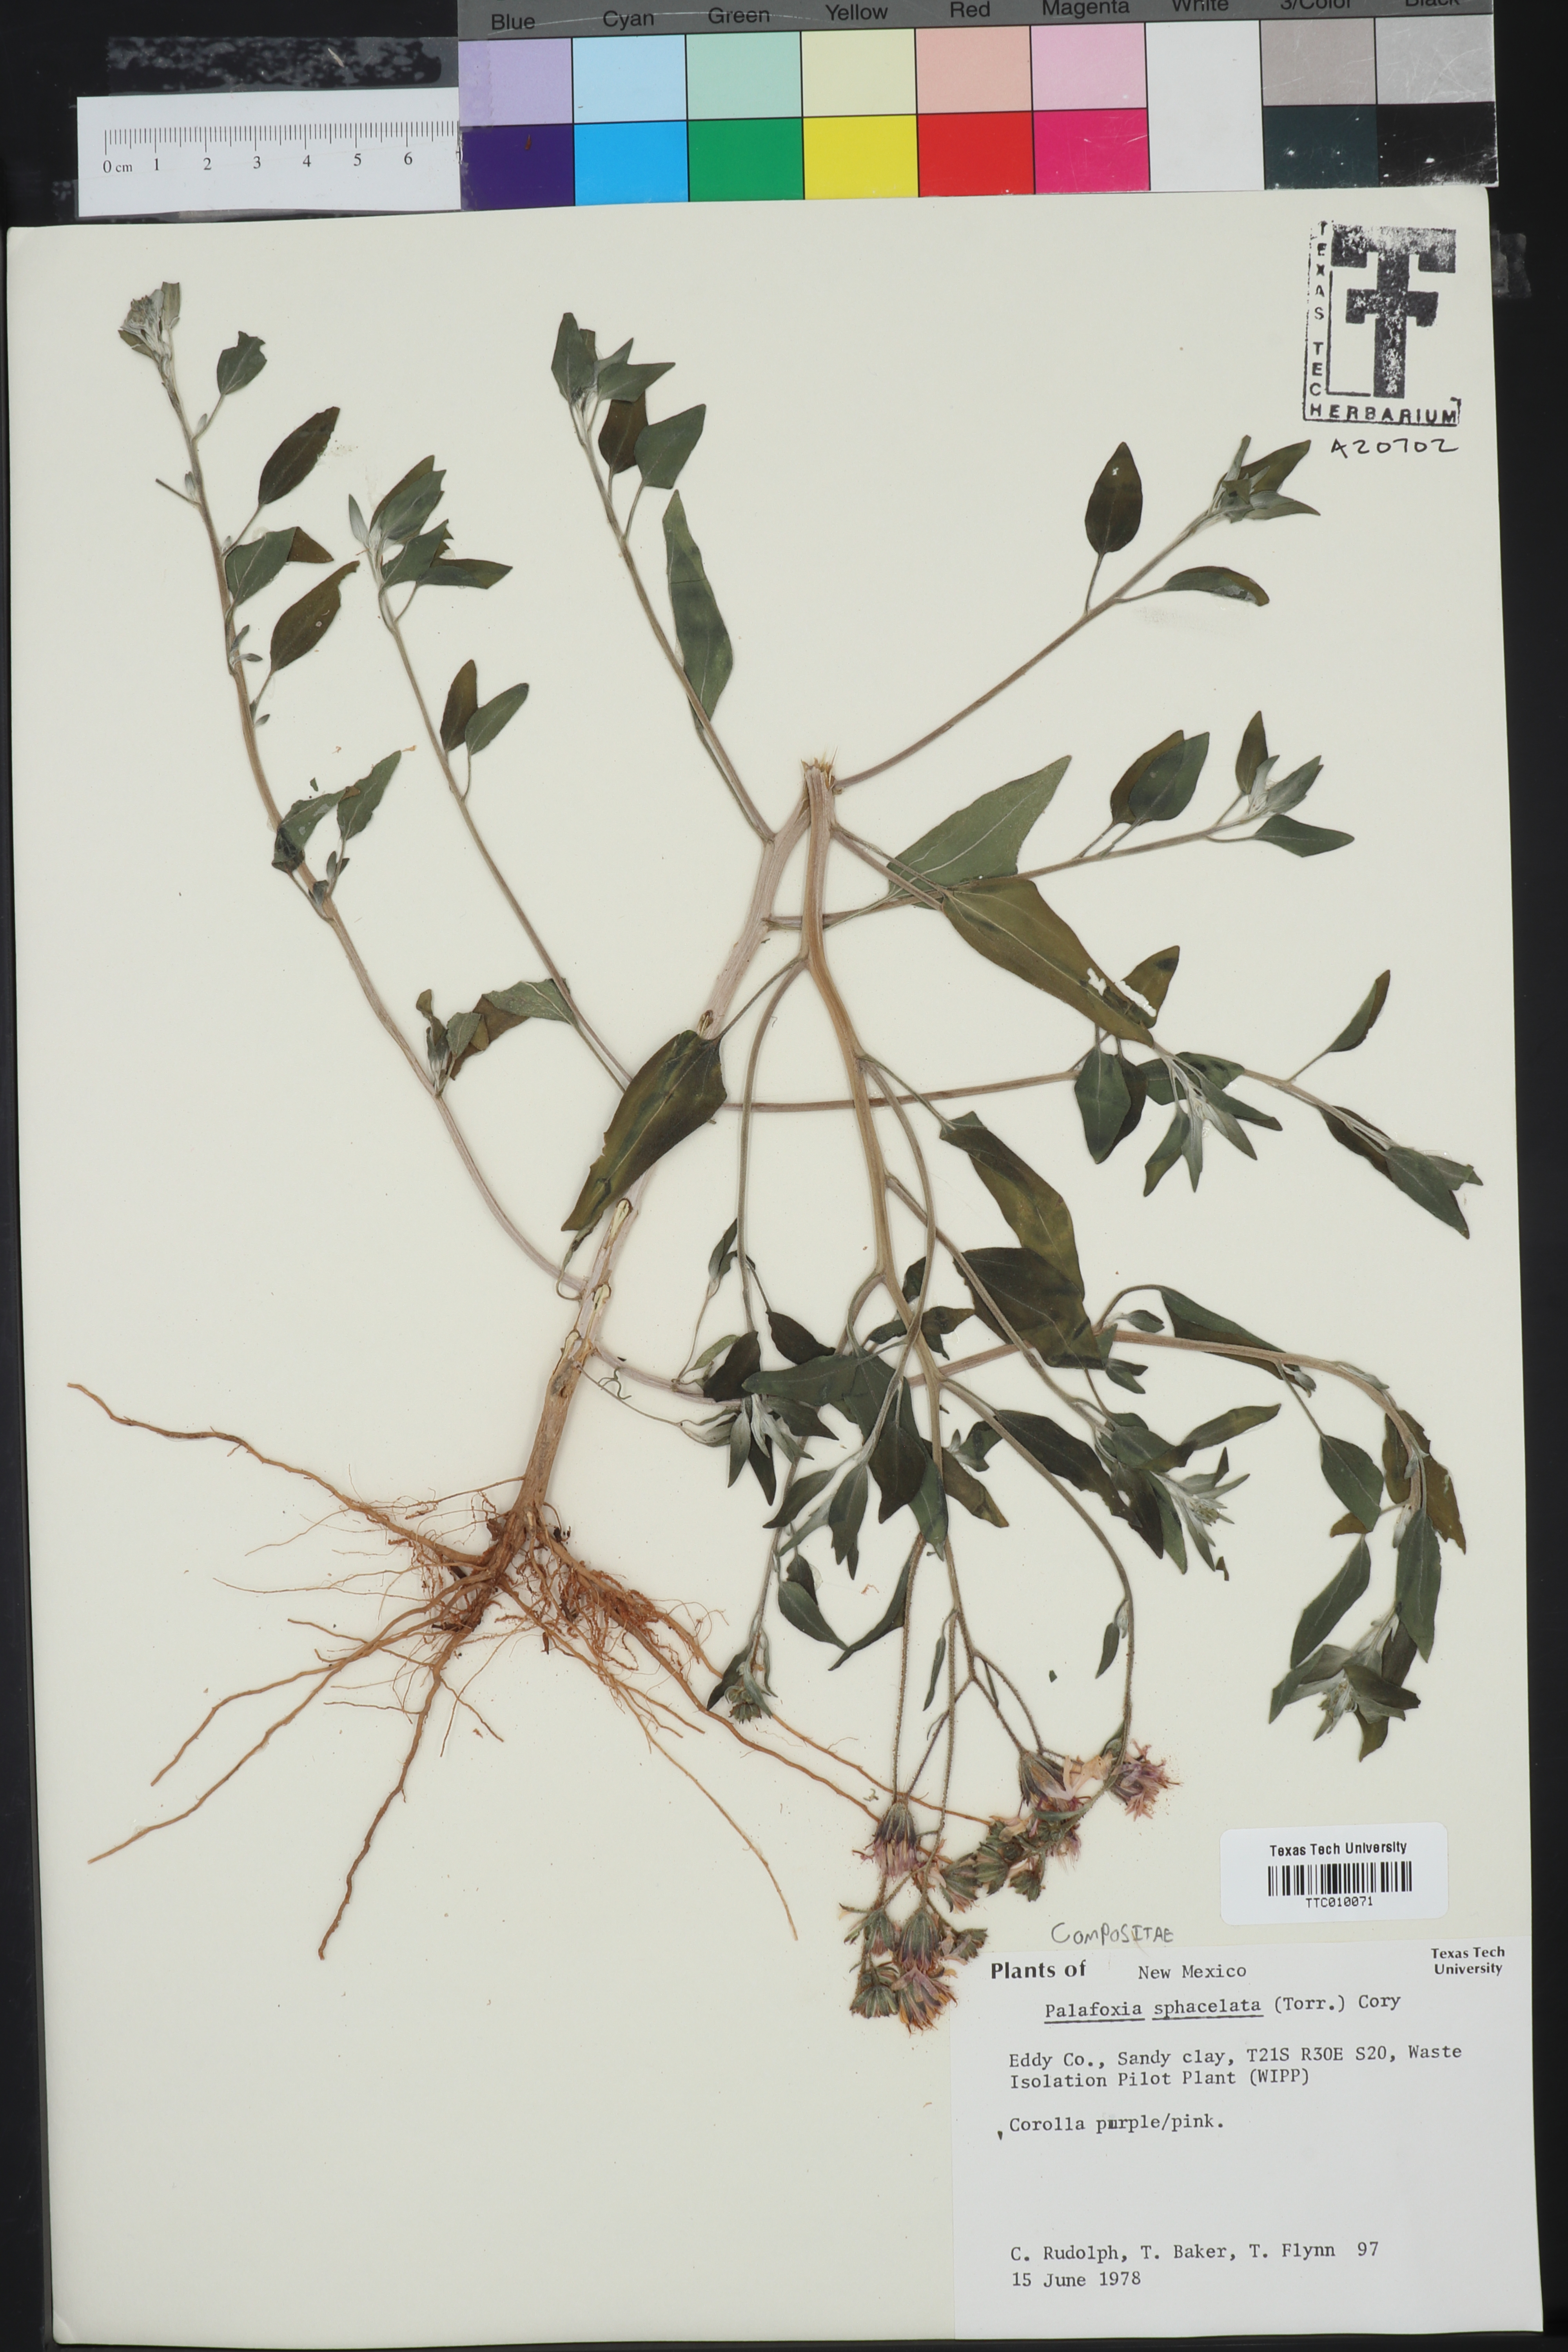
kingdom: Plantae
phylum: Tracheophyta
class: Magnoliopsida
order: Asterales
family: Asteraceae
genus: Palafoxia
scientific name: Palafoxia sphacelata
